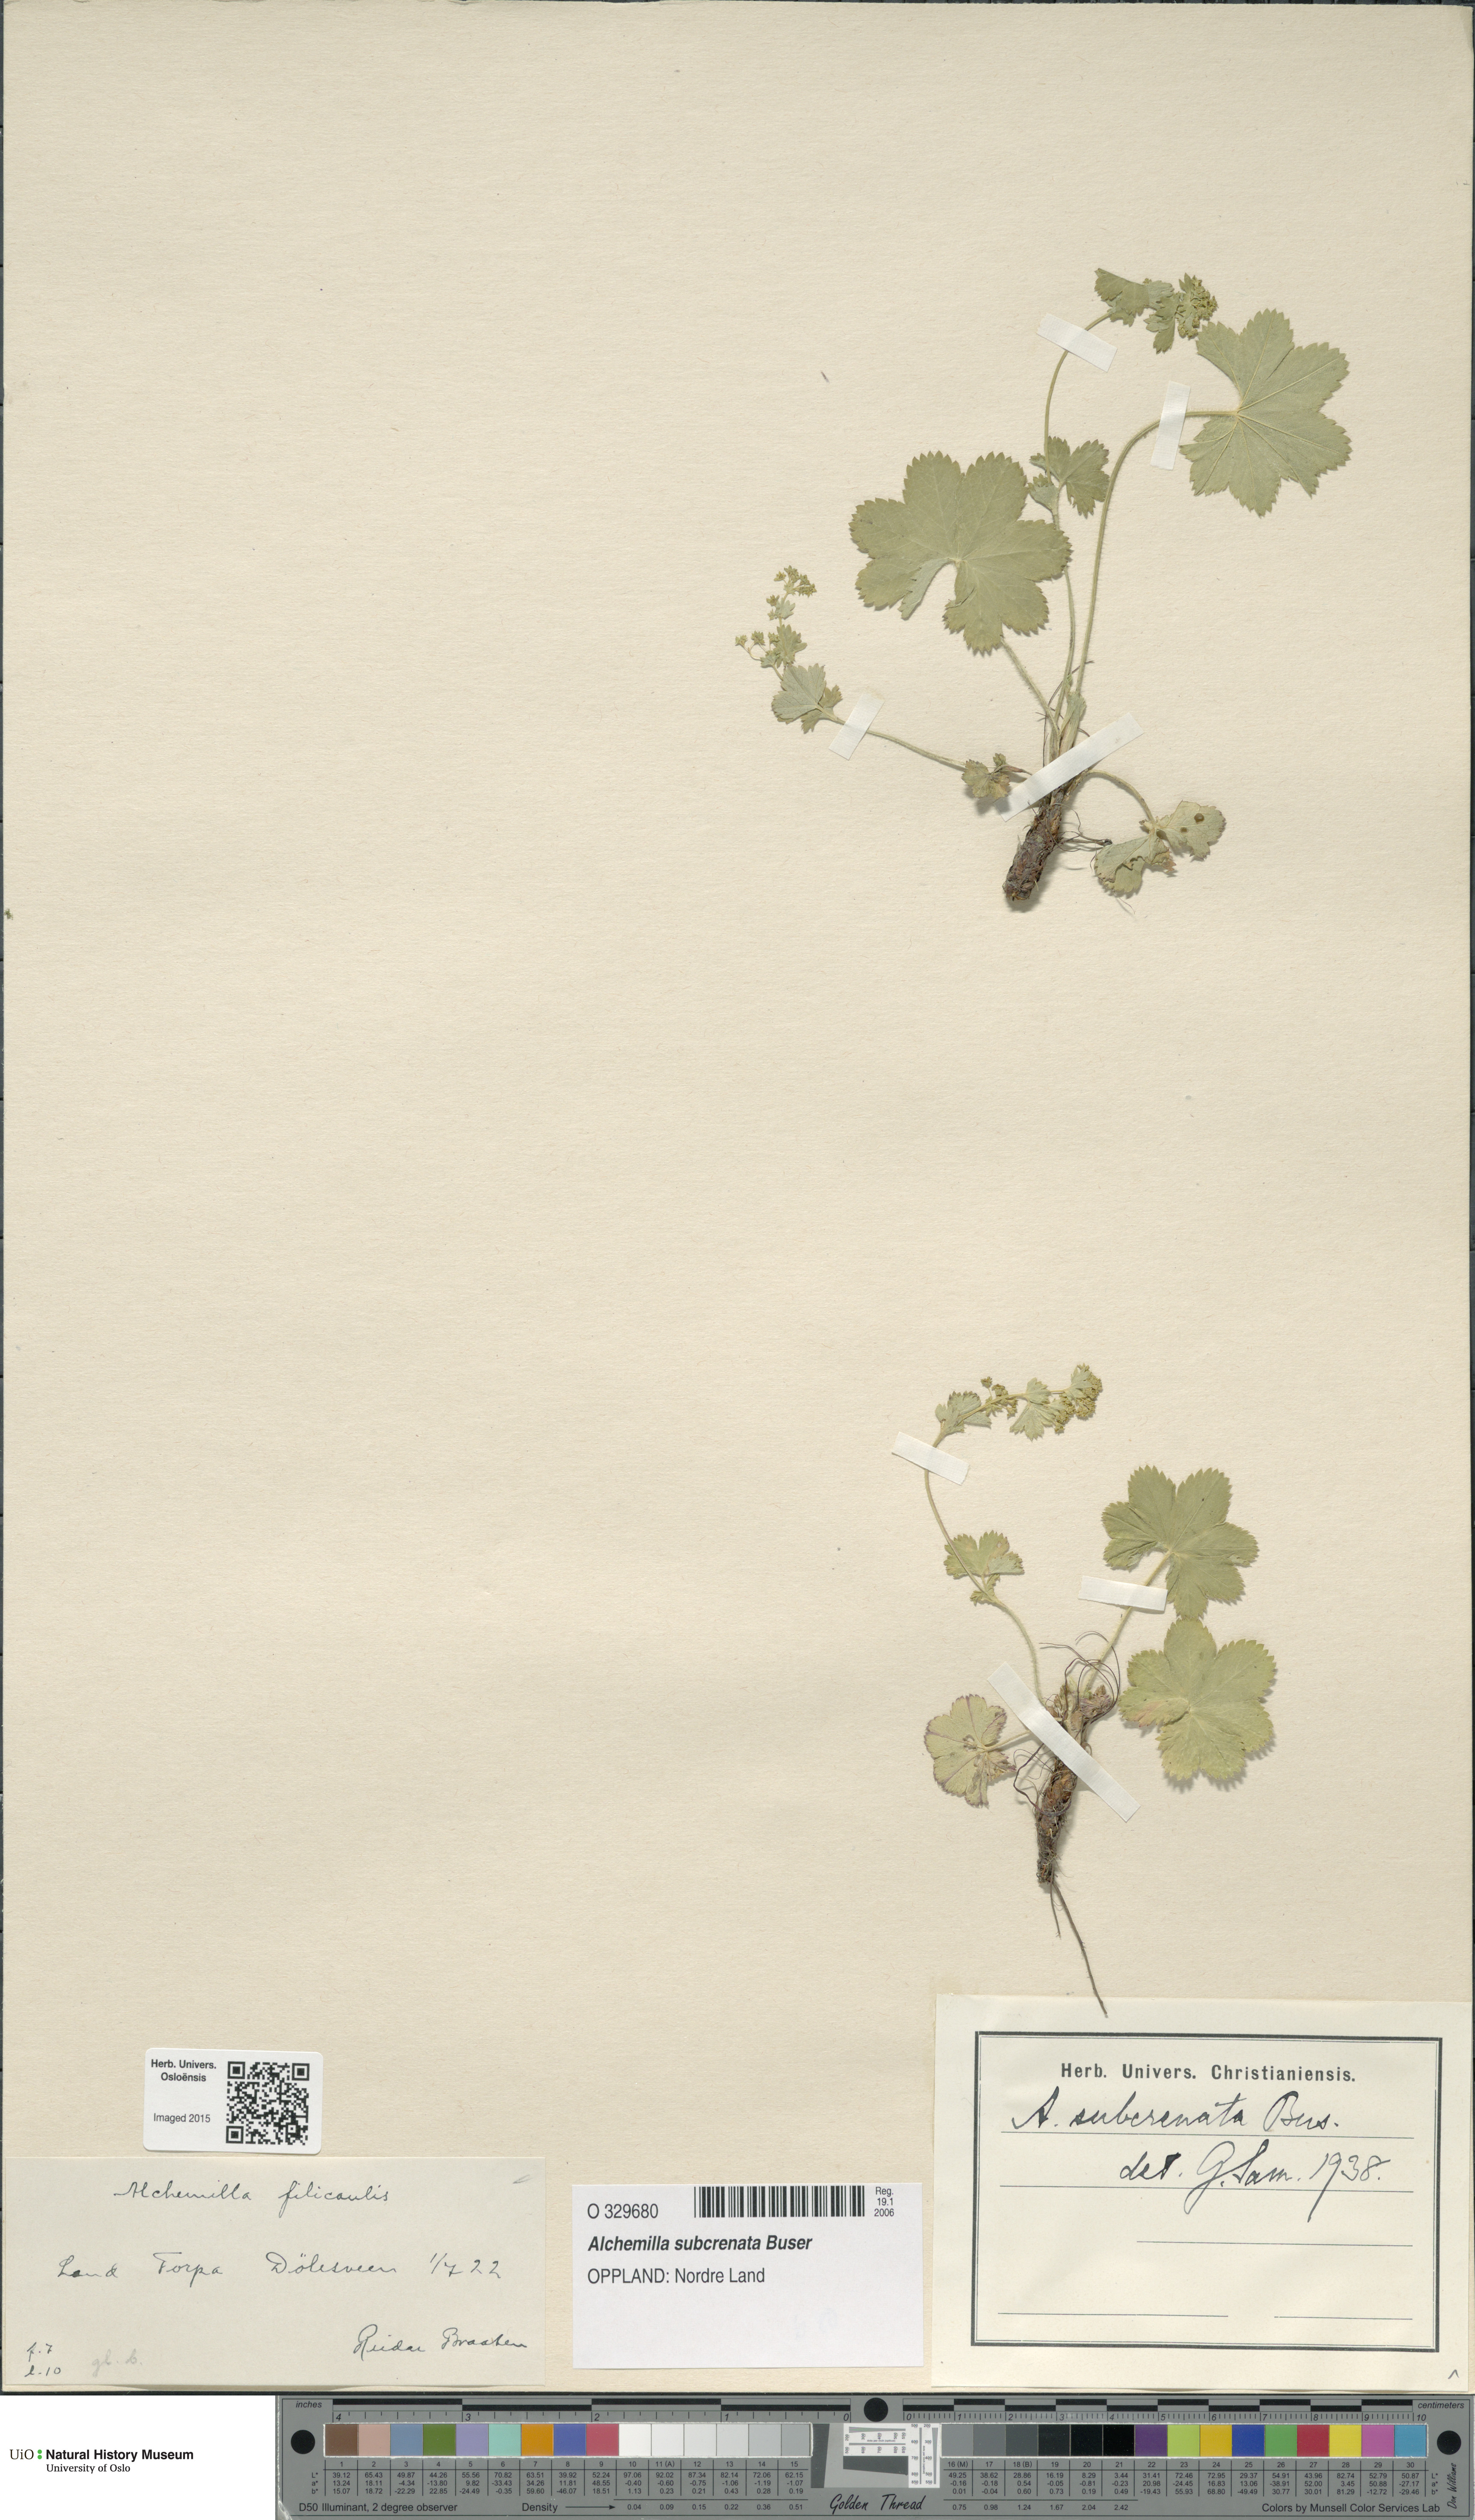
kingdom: Plantae
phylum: Tracheophyta
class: Magnoliopsida
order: Rosales
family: Rosaceae
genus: Alchemilla
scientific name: Alchemilla subcrenata
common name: Broadtooth lady's mantle
